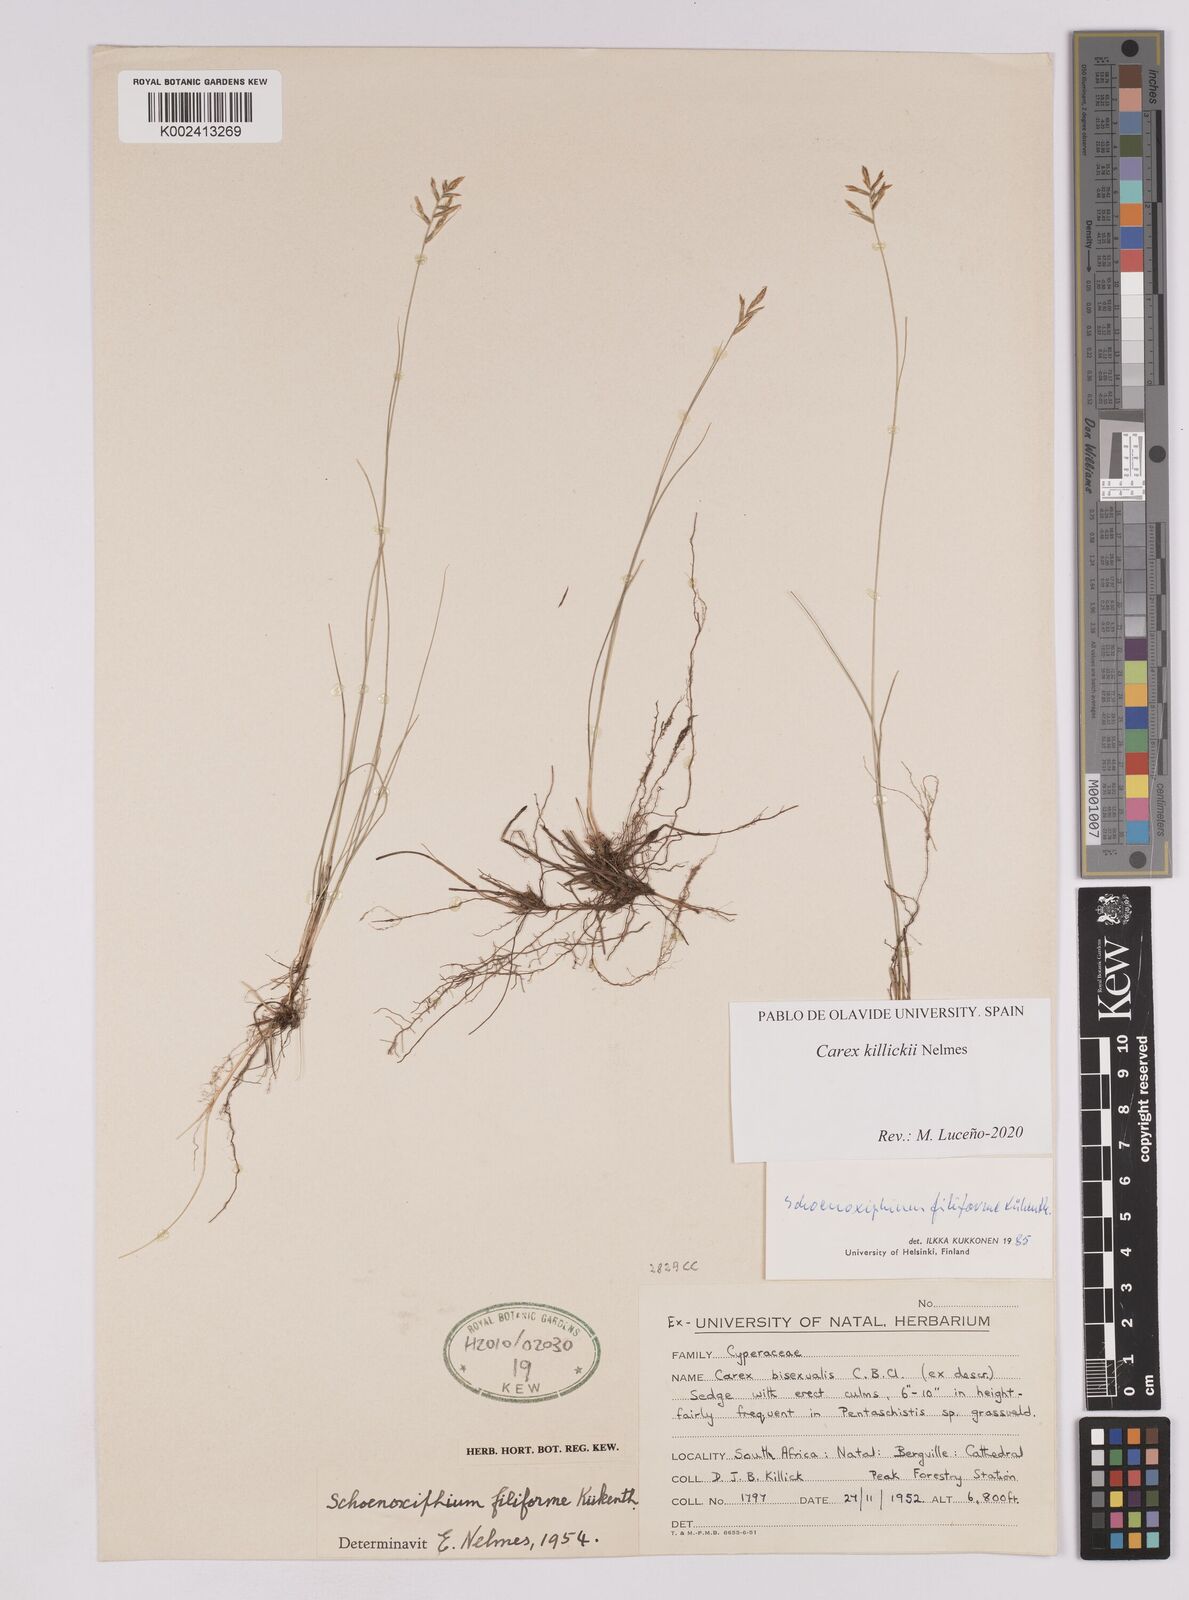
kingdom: Plantae
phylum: Tracheophyta
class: Liliopsida
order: Poales
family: Cyperaceae
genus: Carex
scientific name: Carex
